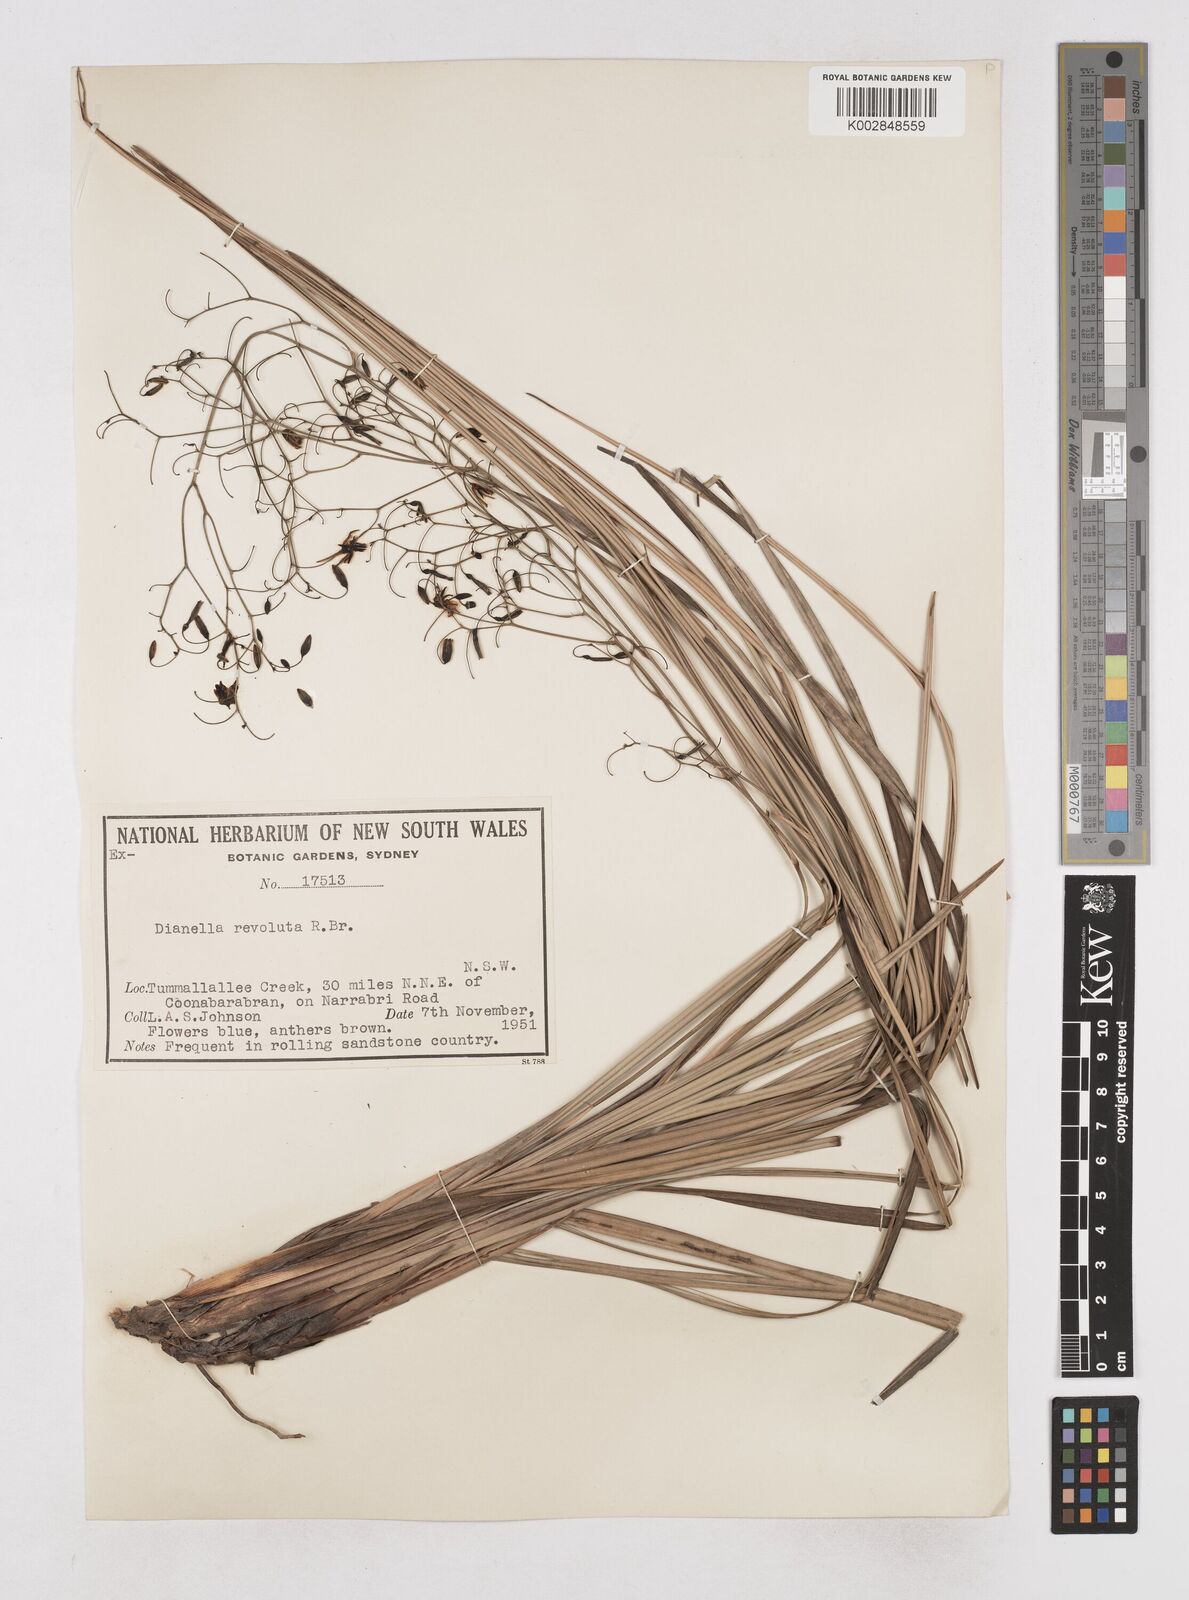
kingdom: Plantae
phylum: Tracheophyta
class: Liliopsida
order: Asparagales
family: Asphodelaceae
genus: Dianella
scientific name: Dianella revoluta
